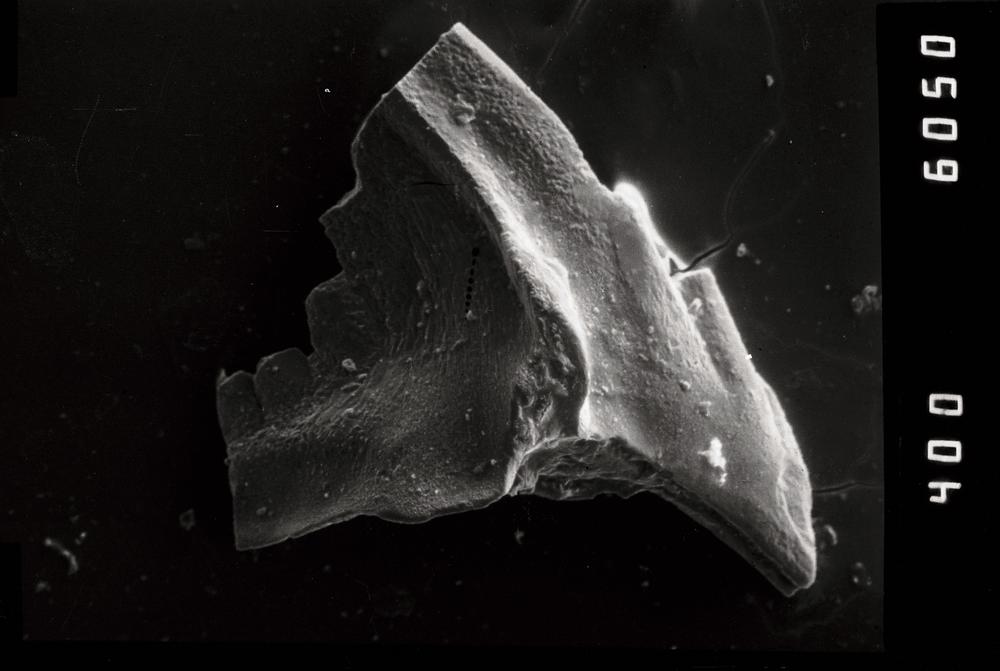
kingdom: Animalia
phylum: Chordata
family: Balognathidae
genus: Prioniodus
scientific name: Prioniodus
